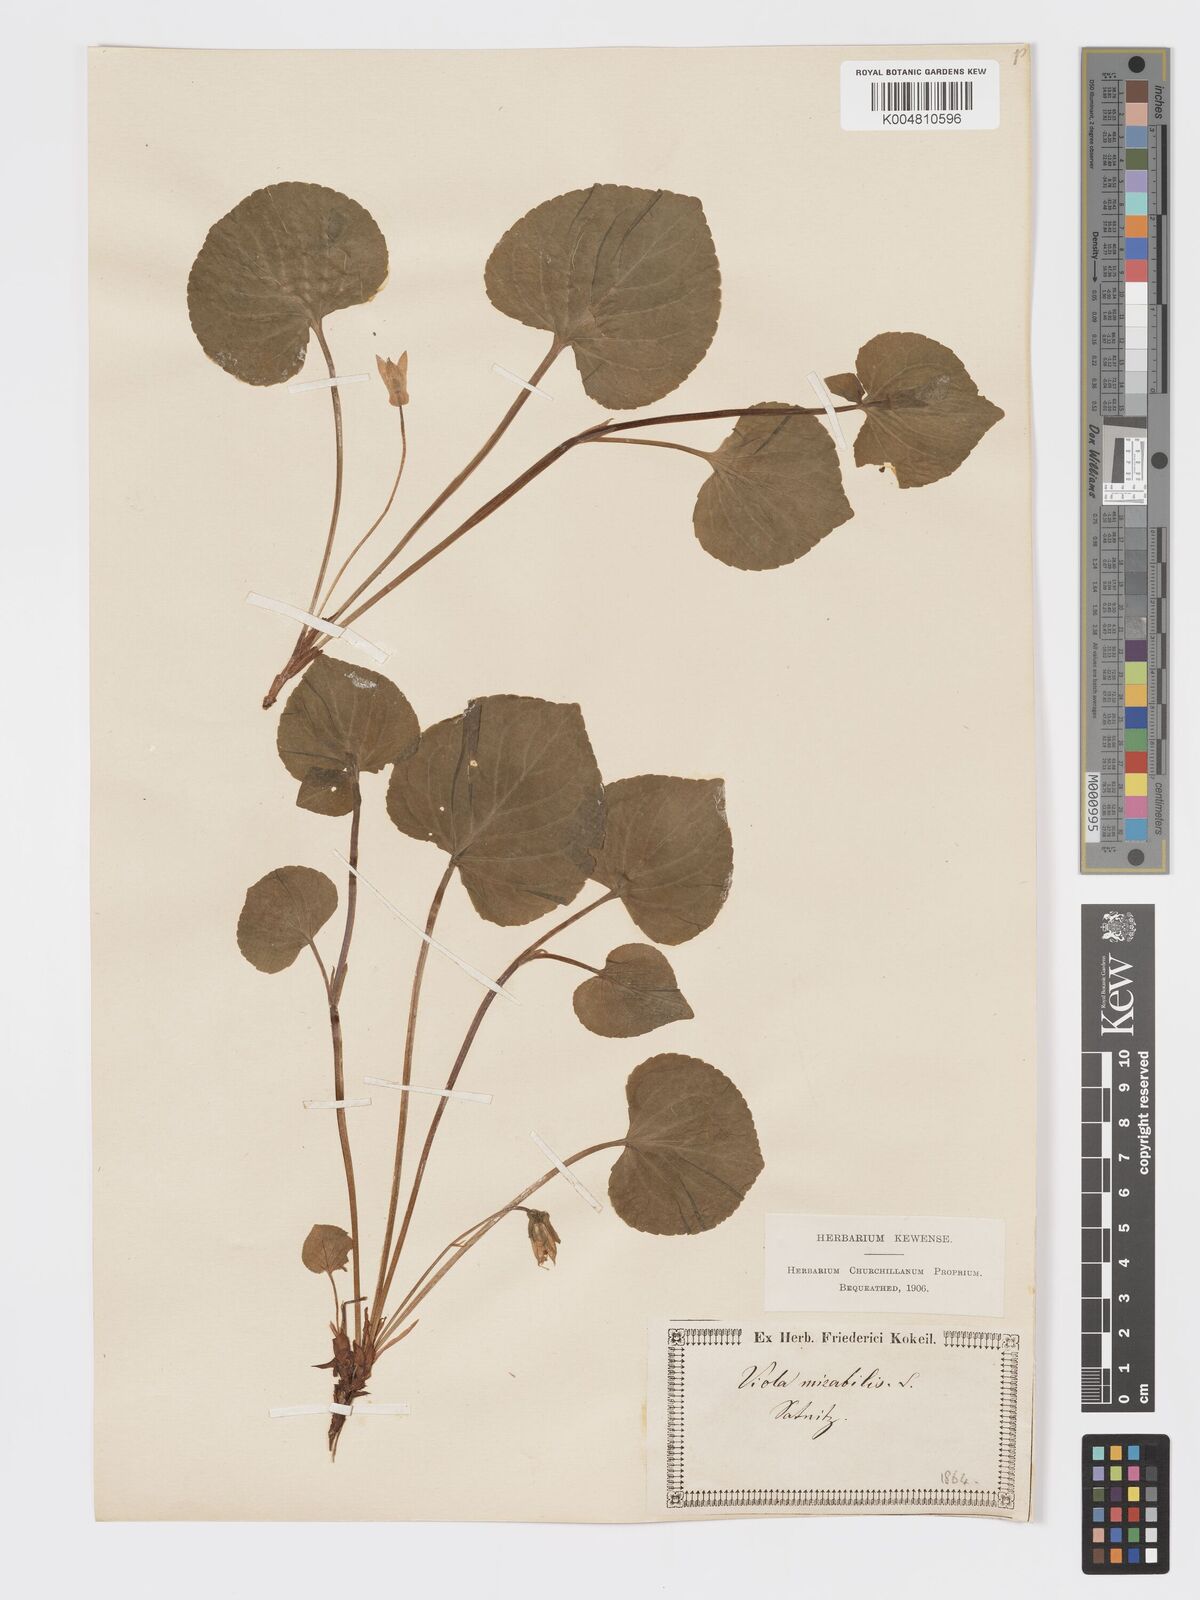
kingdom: Plantae
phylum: Tracheophyta
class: Magnoliopsida
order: Malpighiales
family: Violaceae
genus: Viola
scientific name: Viola mirabilis
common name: Wonder violet
